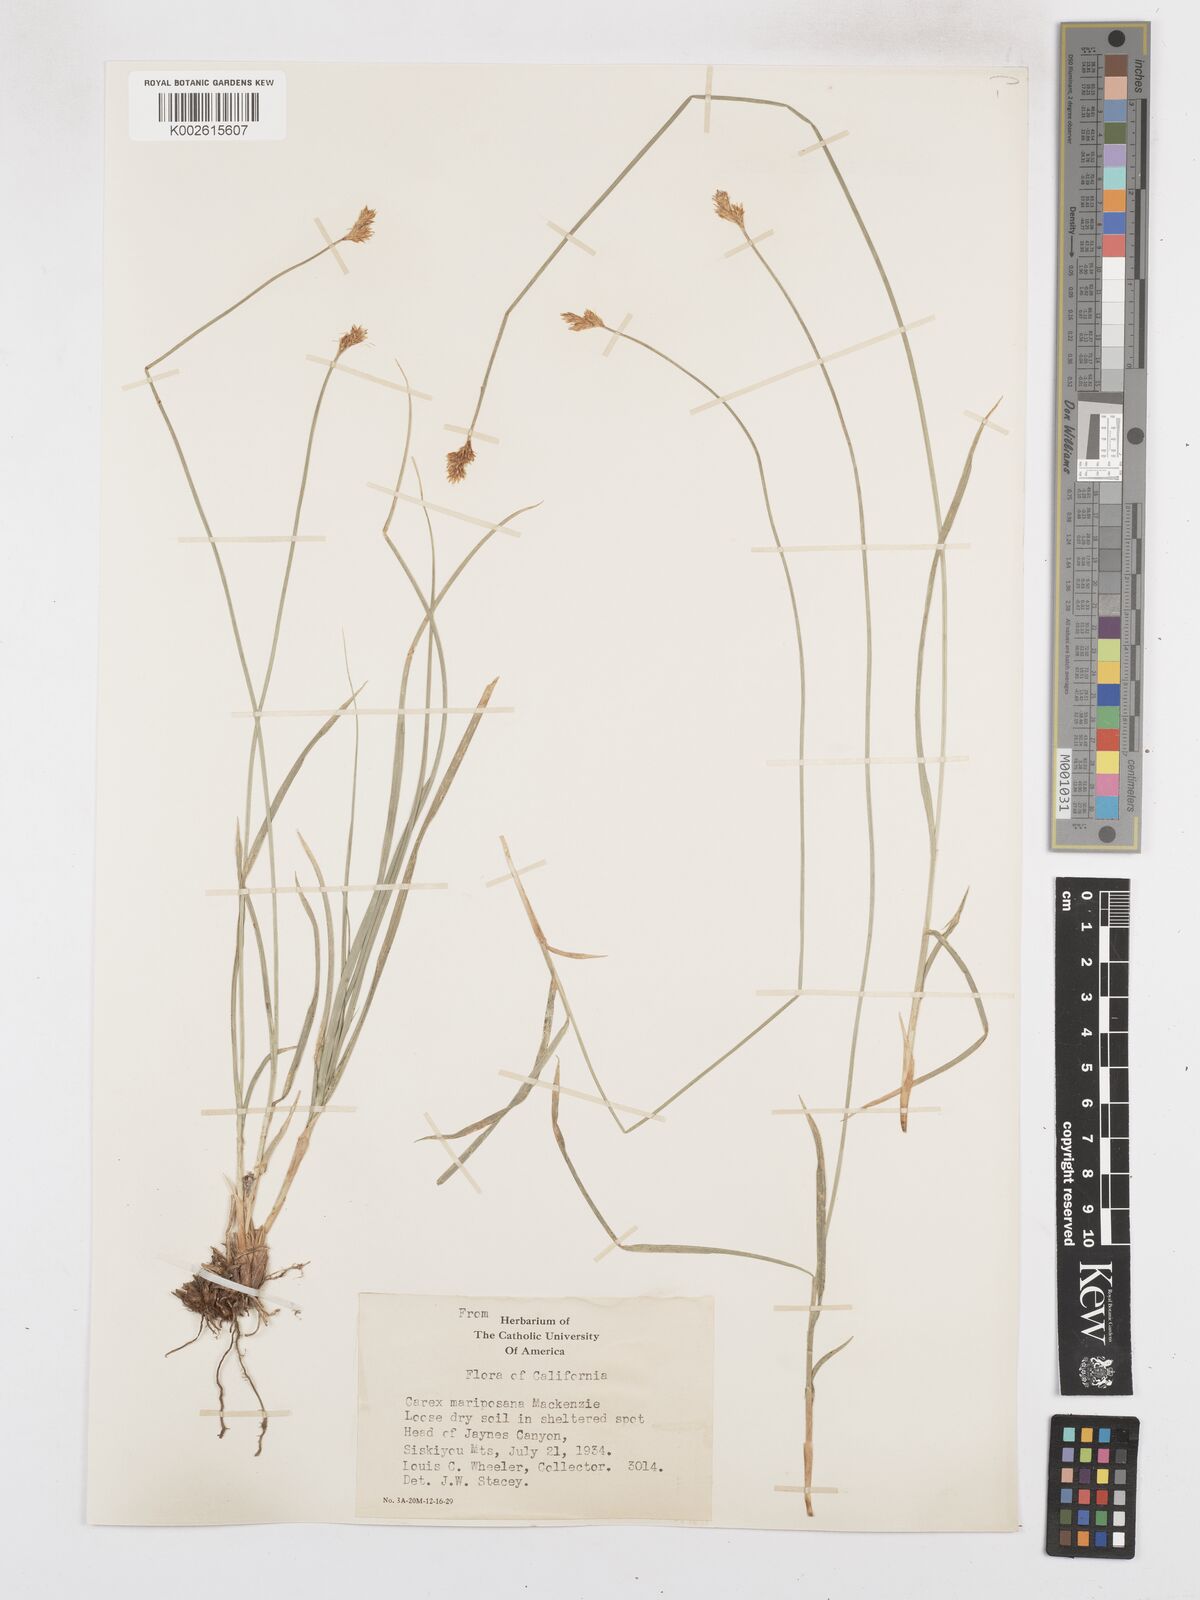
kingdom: Plantae
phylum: Tracheophyta
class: Liliopsida
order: Poales
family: Cyperaceae
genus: Carex
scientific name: Carex mariposana
